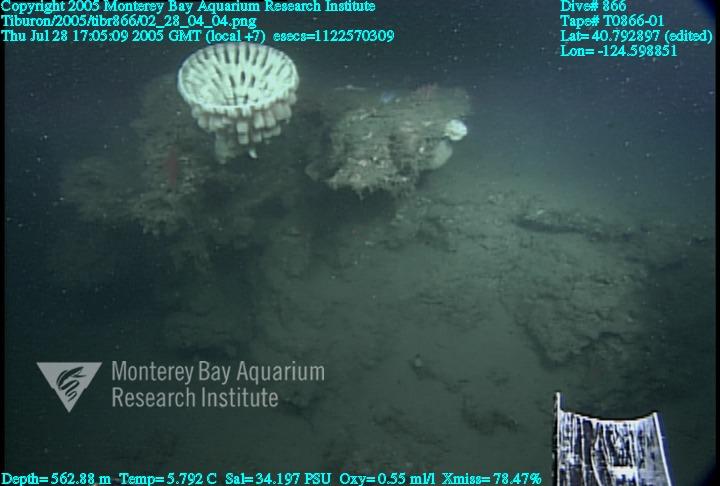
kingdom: Animalia
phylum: Porifera
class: Hexactinellida
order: Sceptrulophora
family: Aphrocallistidae
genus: Heterochone
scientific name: Heterochone calyx
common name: Fingered goblet glass sponge
